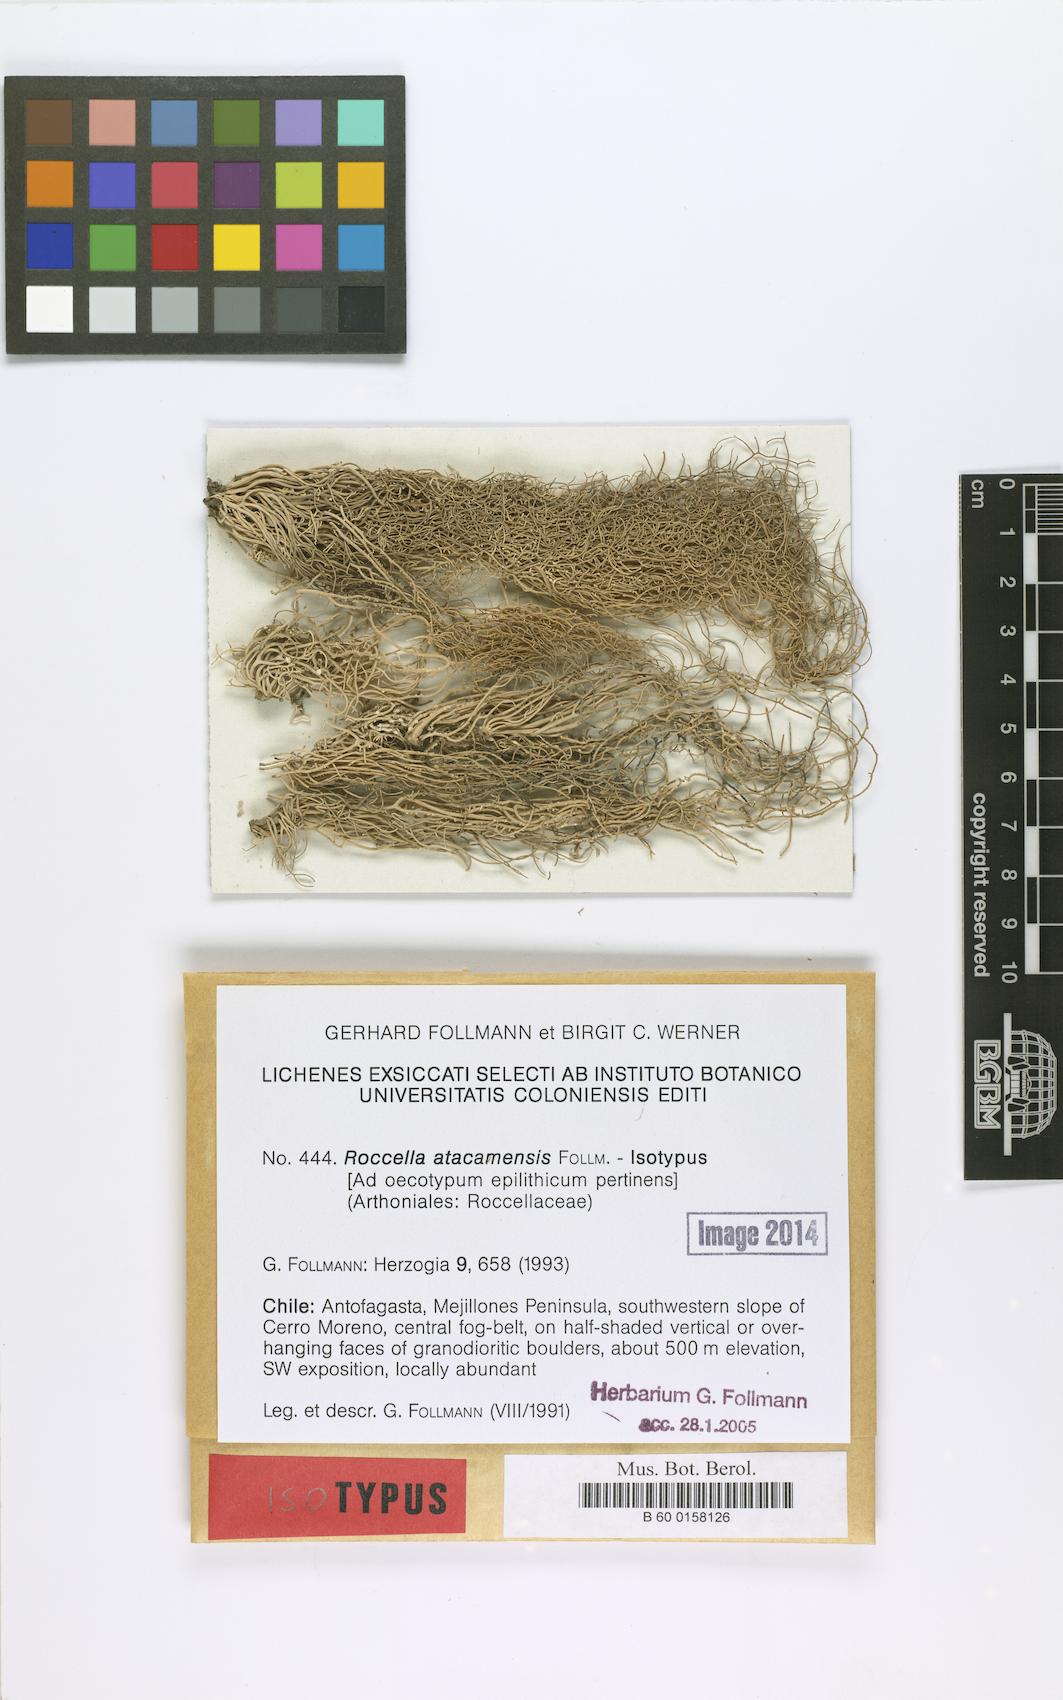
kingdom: Fungi
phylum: Ascomycota
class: Arthoniomycetes
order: Arthoniales
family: Roccellaceae
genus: Roccella
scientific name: Roccella atacamensis
